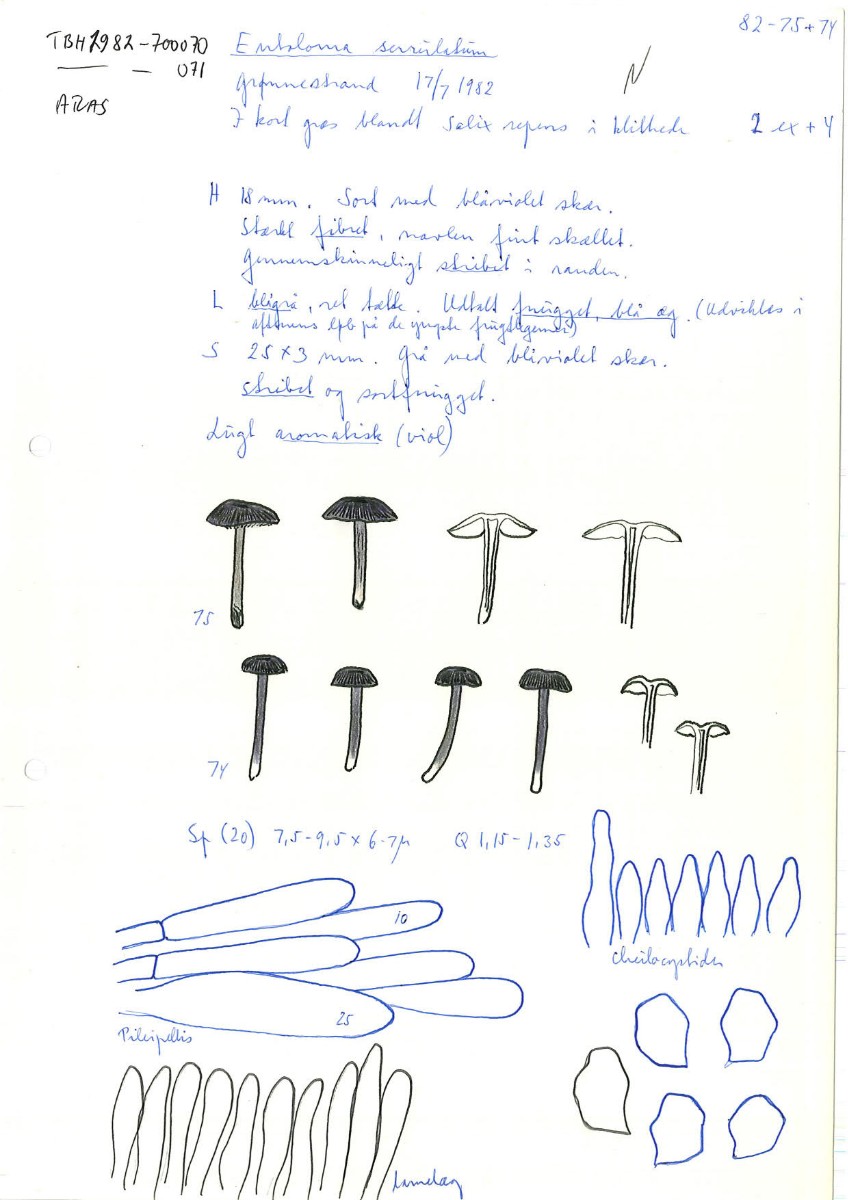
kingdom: Fungi
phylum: Basidiomycota
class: Agaricomycetes
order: Agaricales
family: Entolomataceae
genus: Entoloma
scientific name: Entoloma
